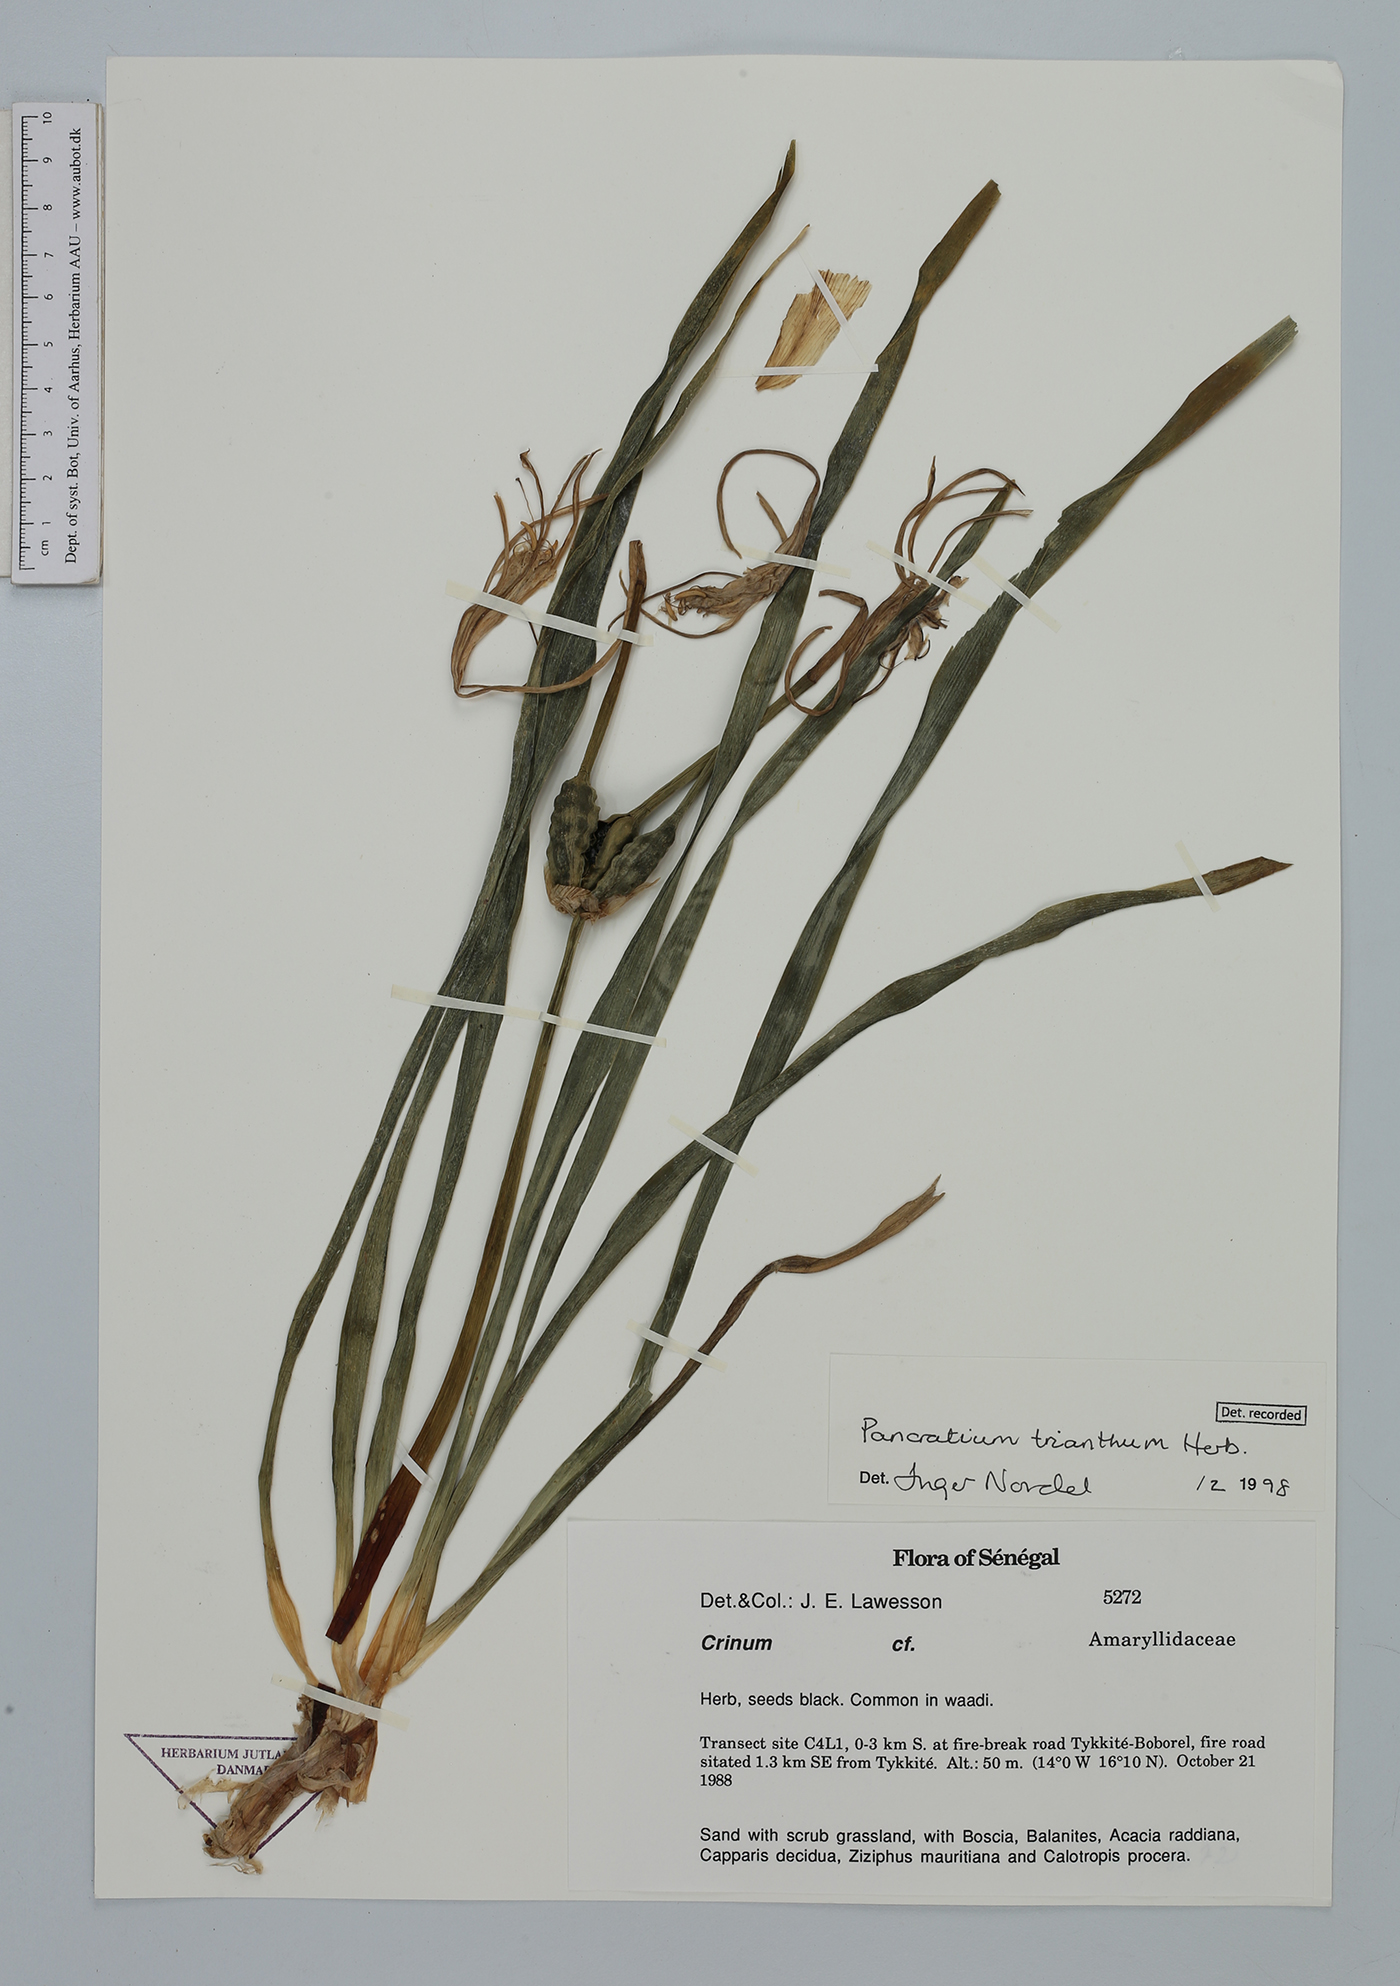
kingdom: Plantae
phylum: Tracheophyta
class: Liliopsida
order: Asparagales
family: Amaryllidaceae
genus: Pancratium
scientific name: Pancratium trianthum
